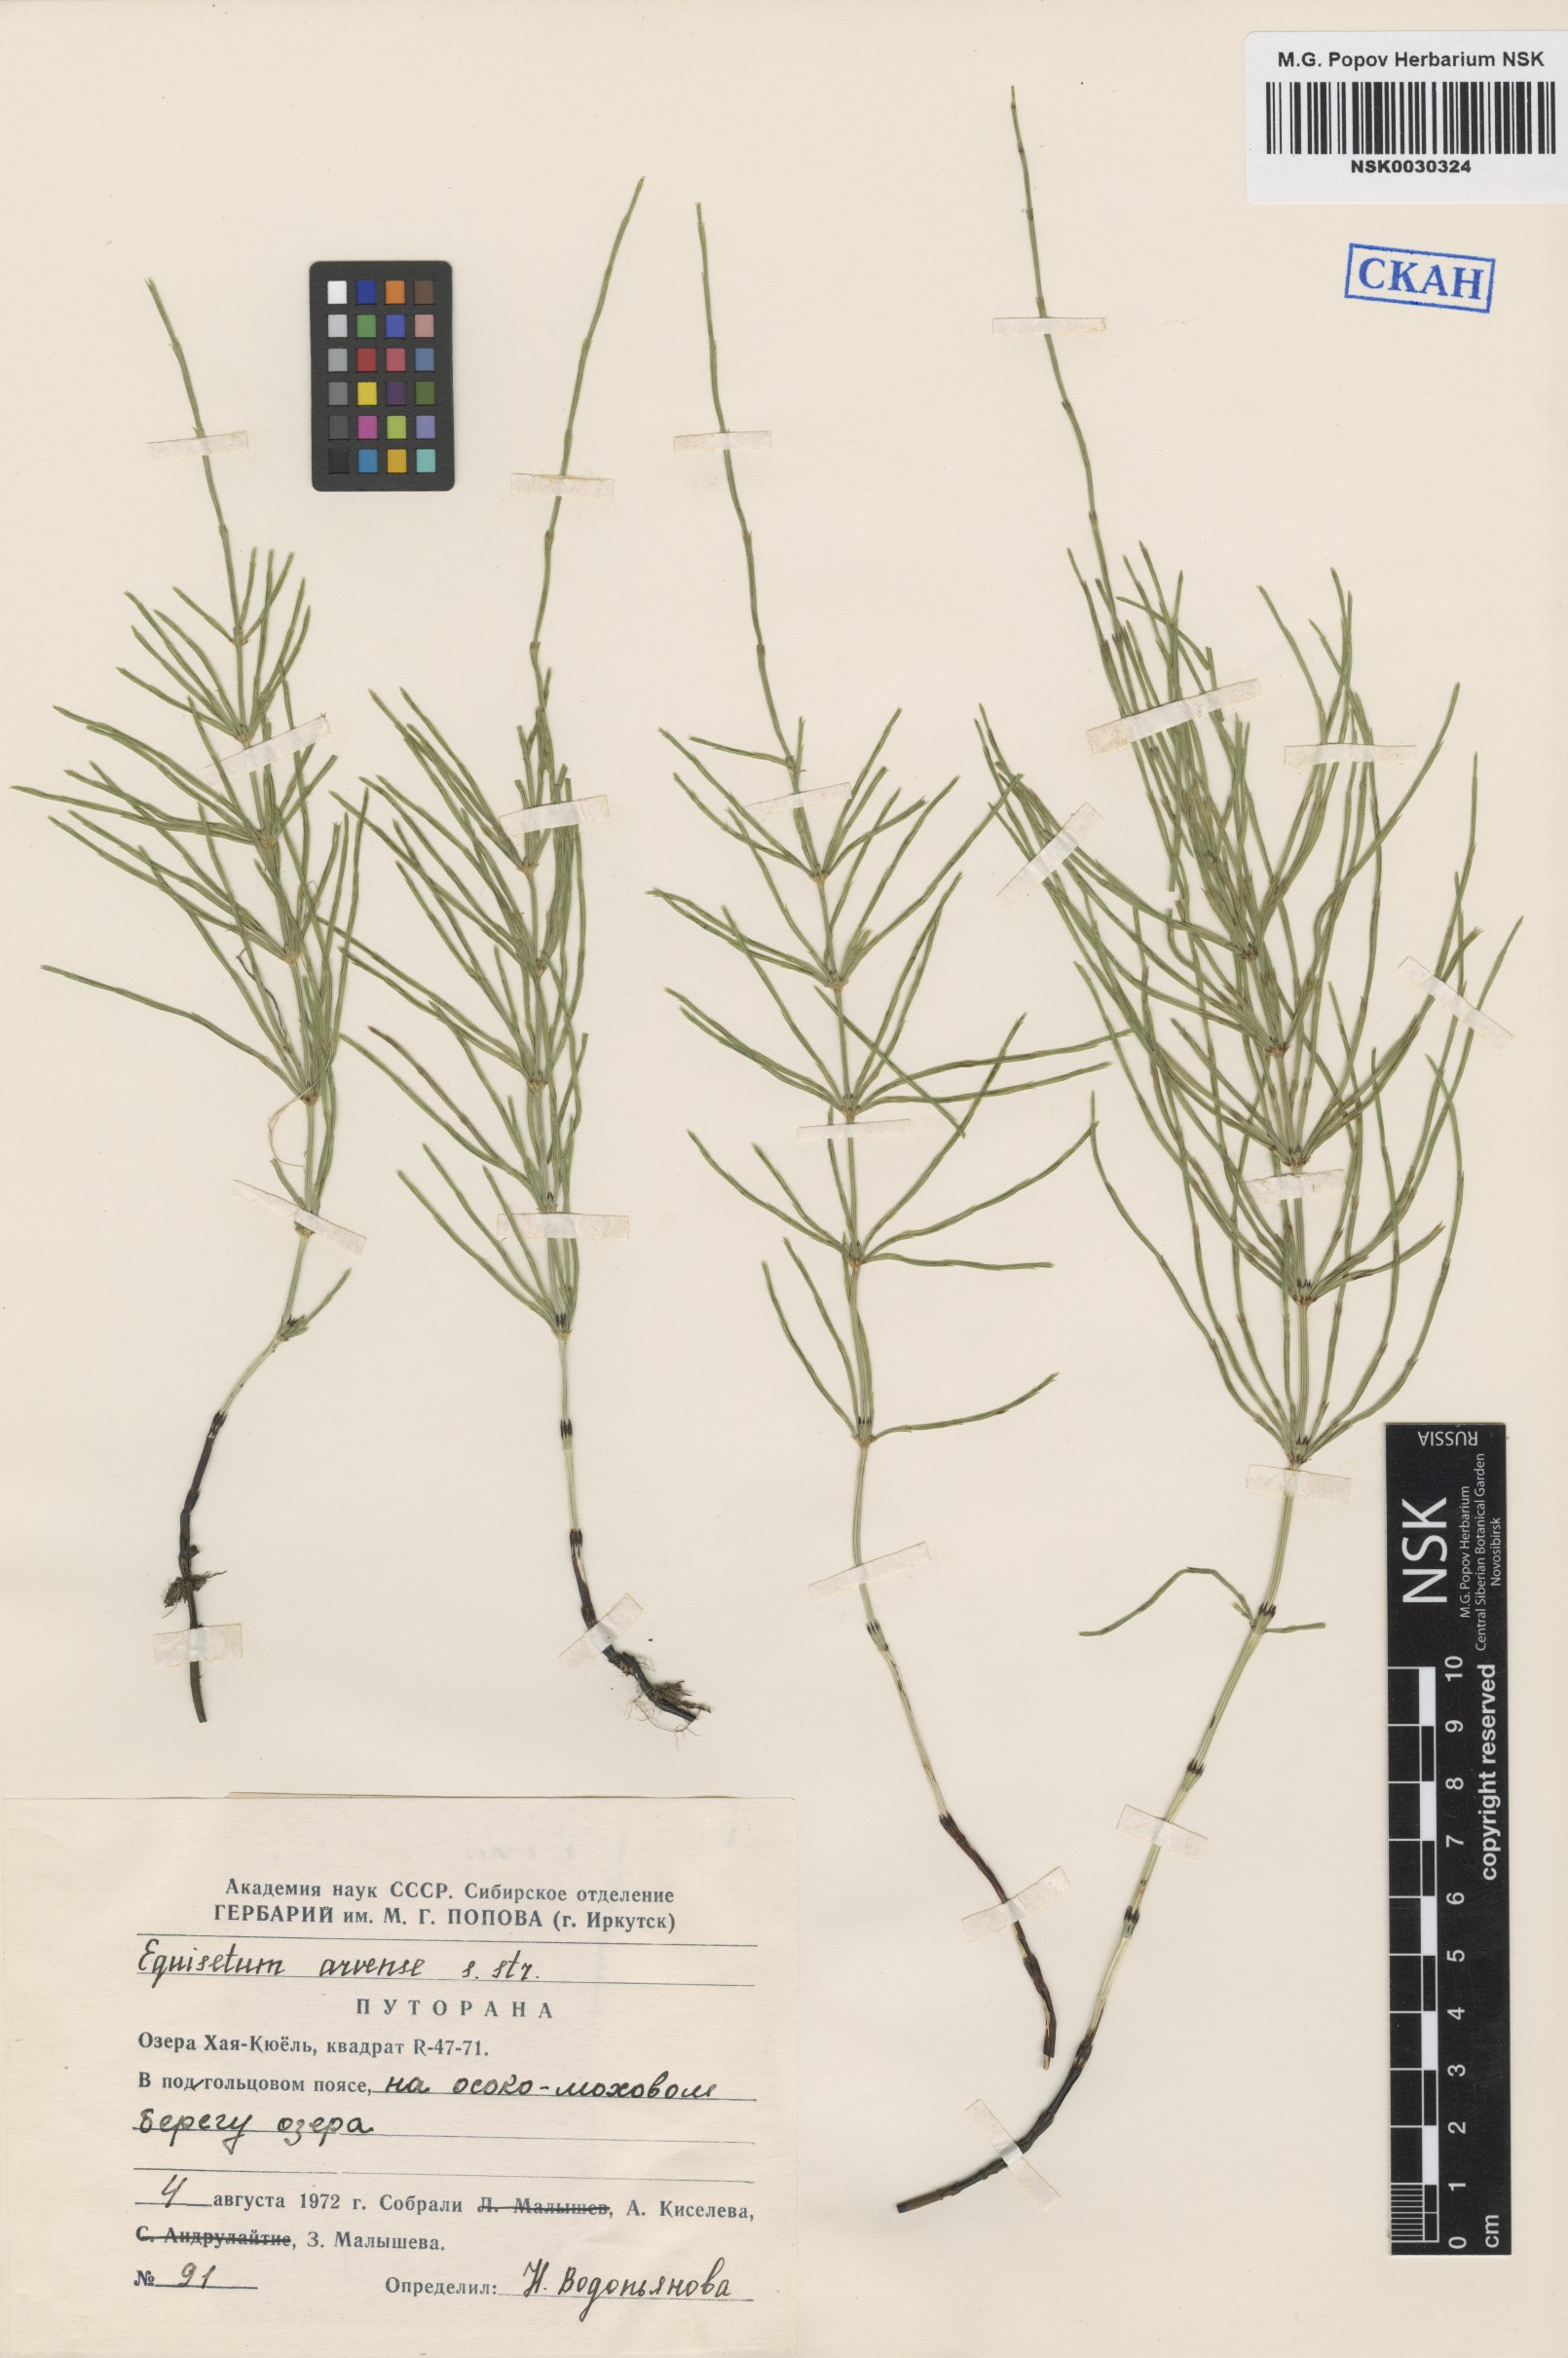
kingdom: Plantae
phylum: Tracheophyta
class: Polypodiopsida
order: Equisetales
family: Equisetaceae
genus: Equisetum
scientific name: Equisetum arvense
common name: Field horsetail
